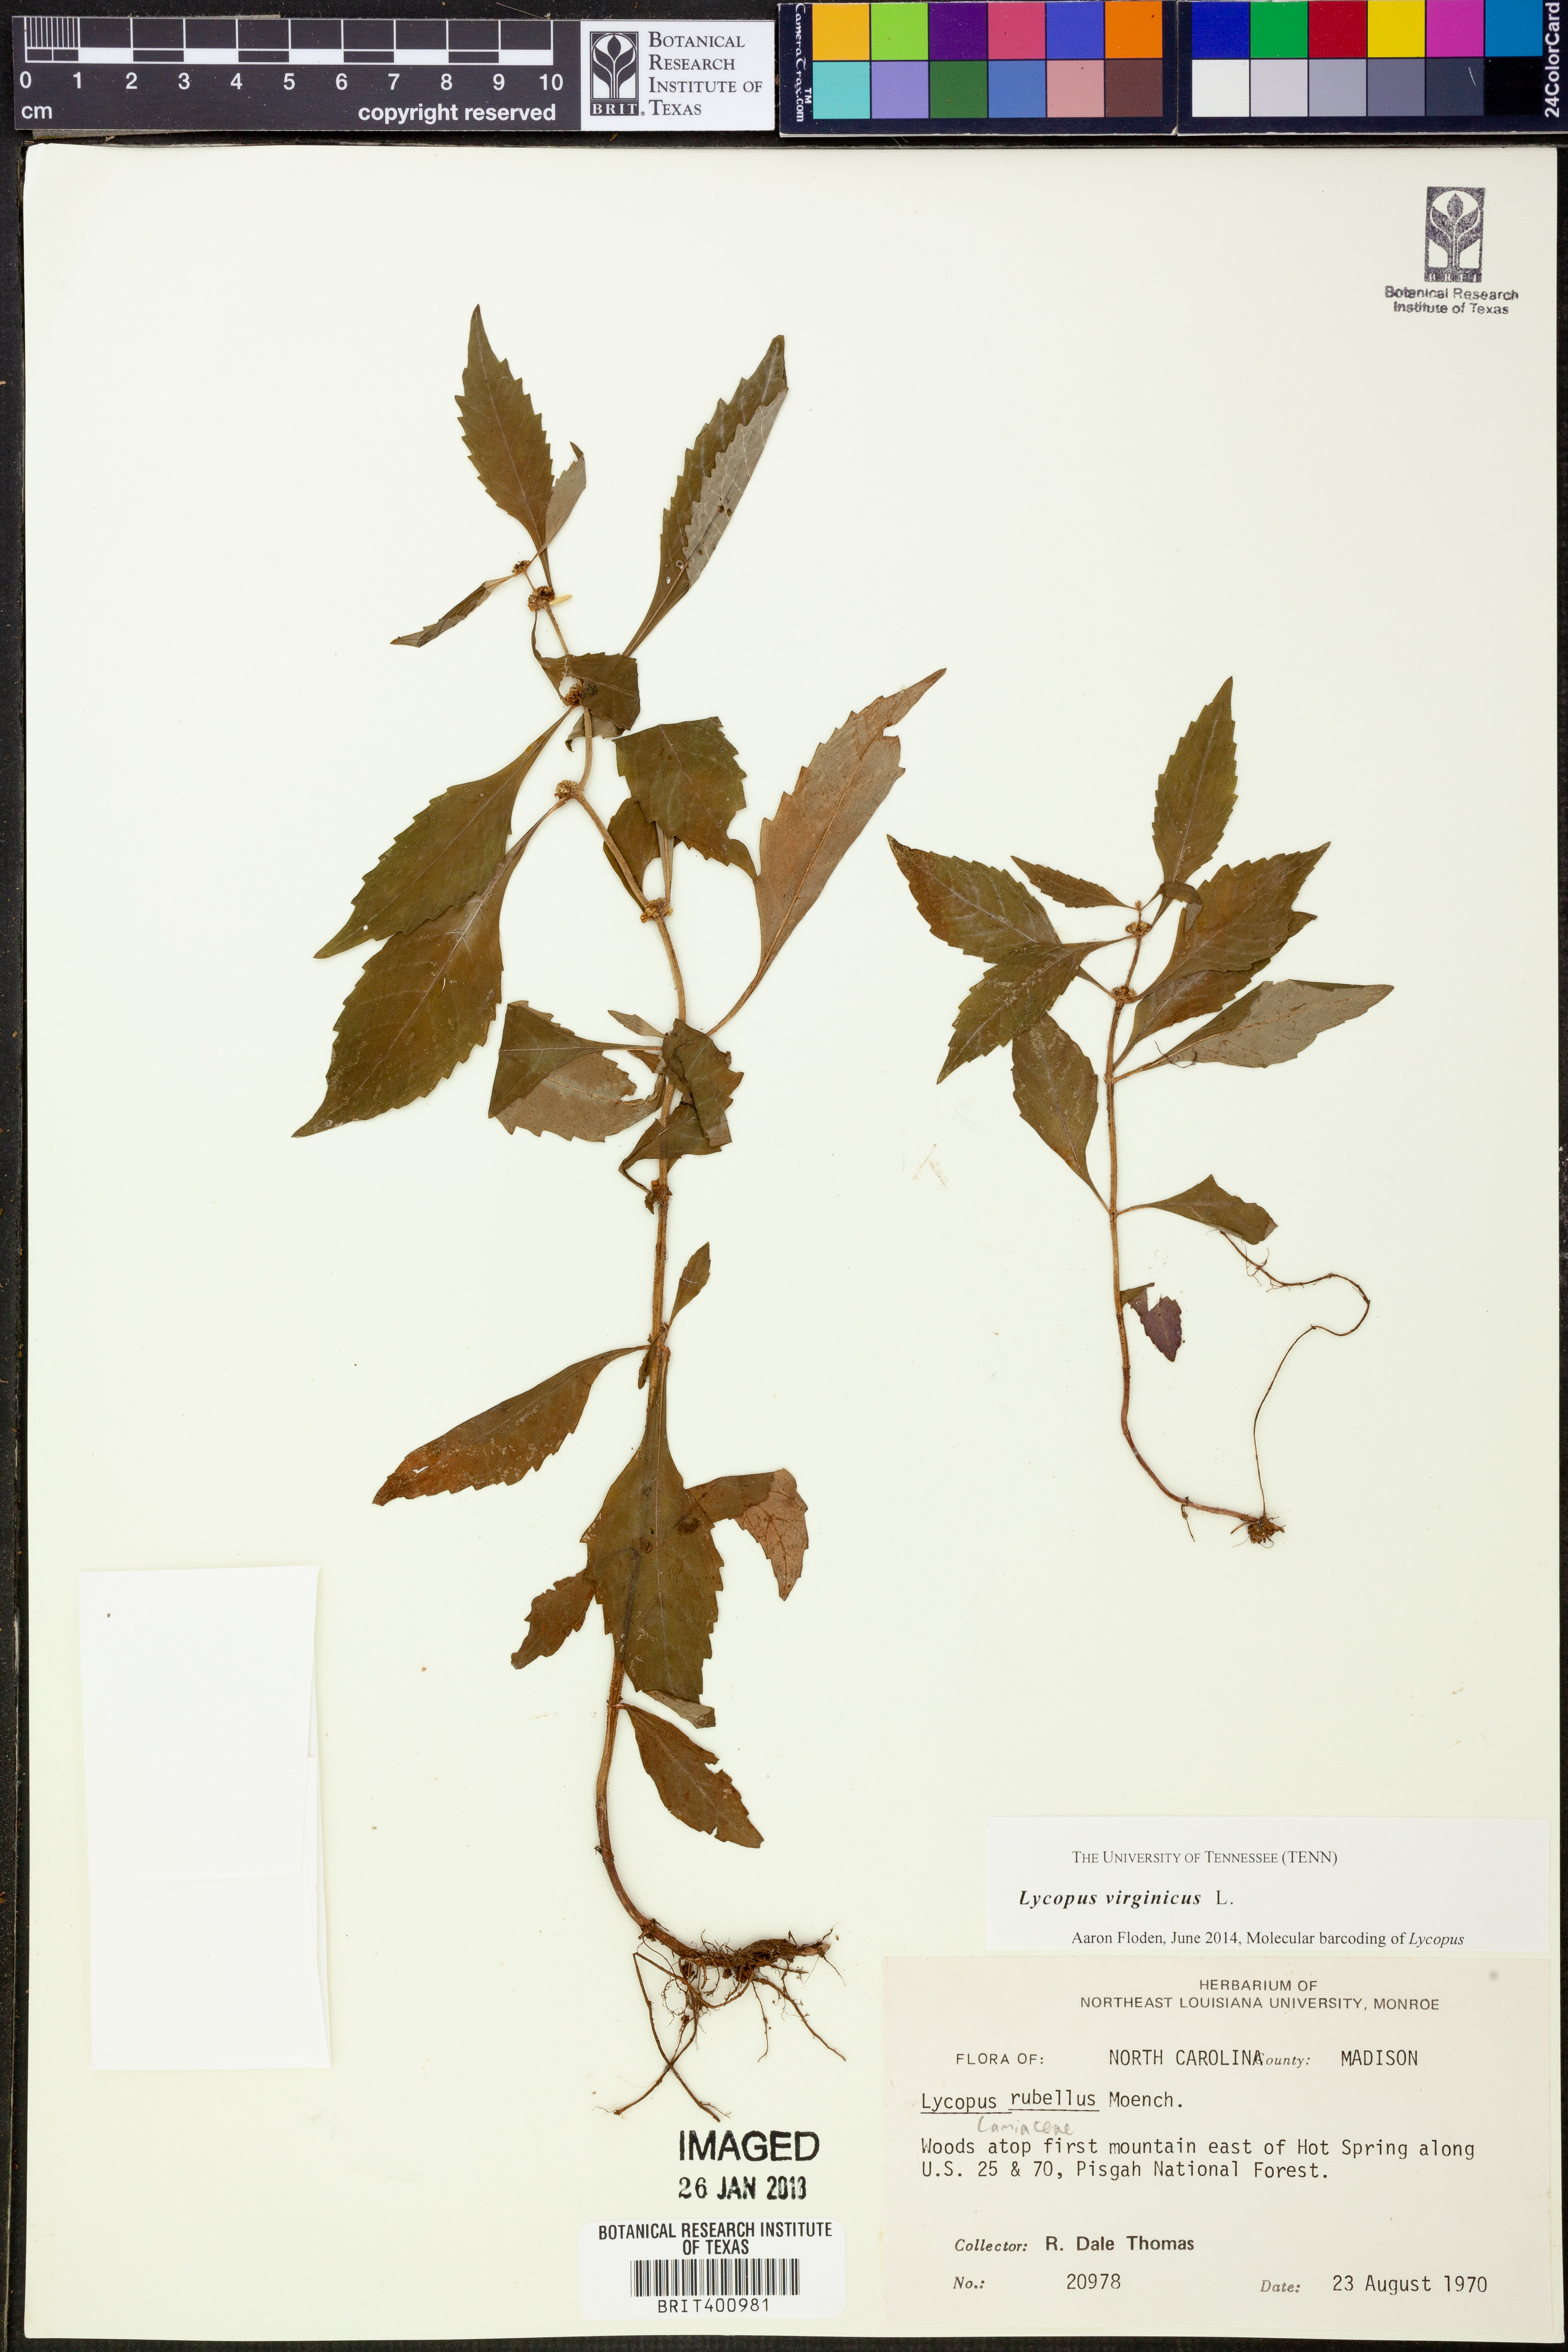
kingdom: Plantae
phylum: Tracheophyta
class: Magnoliopsida
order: Lamiales
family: Lamiaceae
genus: Lycopus
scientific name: Lycopus virginicus
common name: Bugleweed
